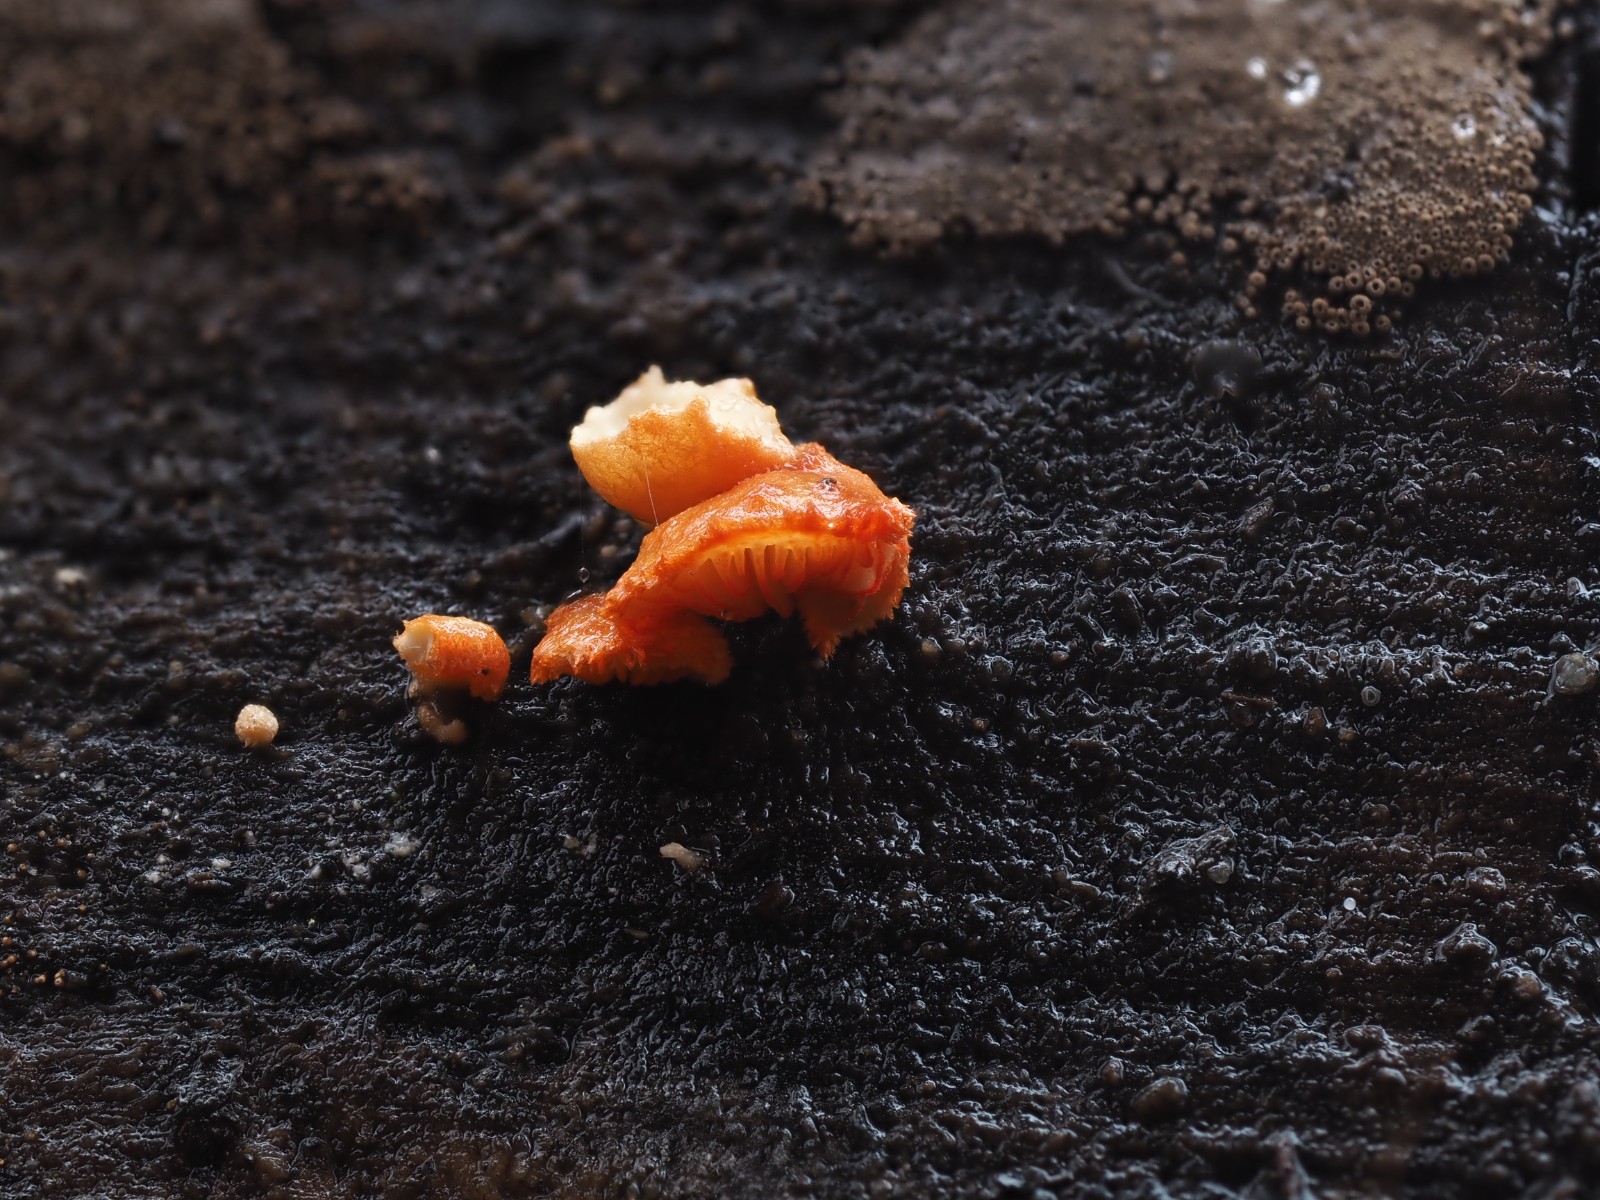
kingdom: Fungi
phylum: Basidiomycota
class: Agaricomycetes
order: Agaricales
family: Crepidotaceae
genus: Crepidotus
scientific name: Crepidotus cinnabarinus
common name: cinnober-muslingesvamp
